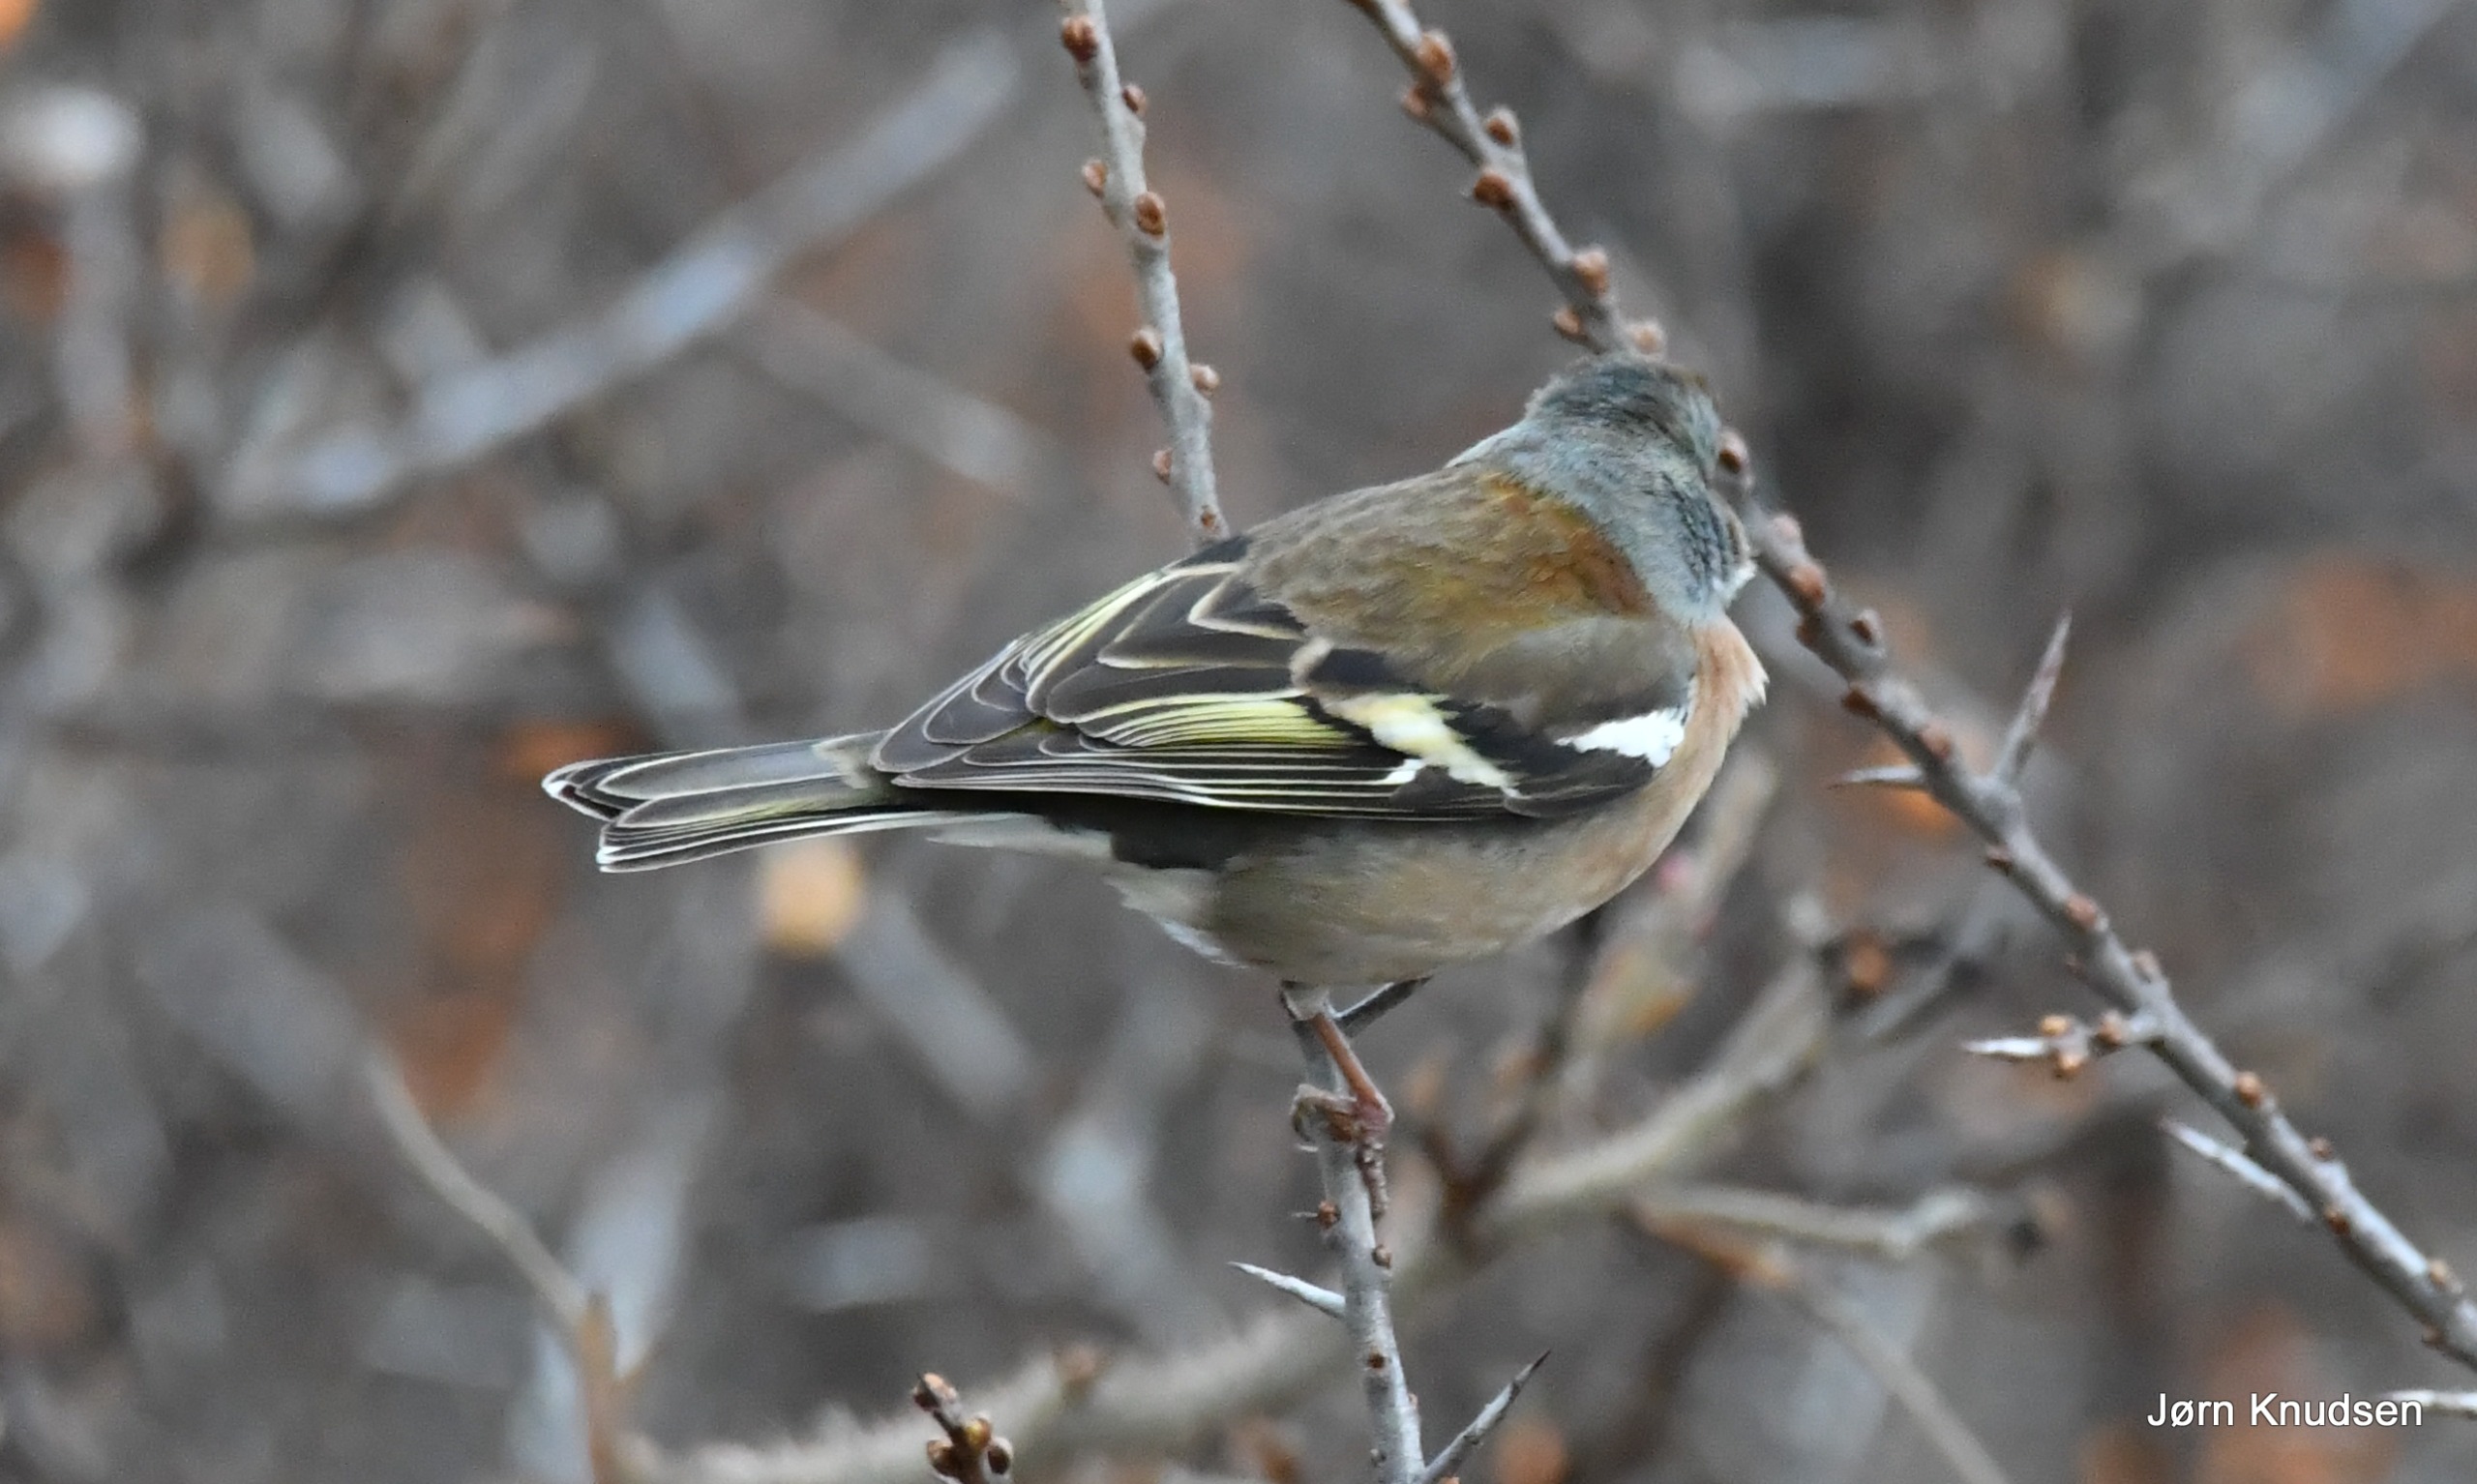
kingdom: Animalia
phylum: Chordata
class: Aves
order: Passeriformes
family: Fringillidae
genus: Fringilla
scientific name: Fringilla coelebs
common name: Bogfinke
